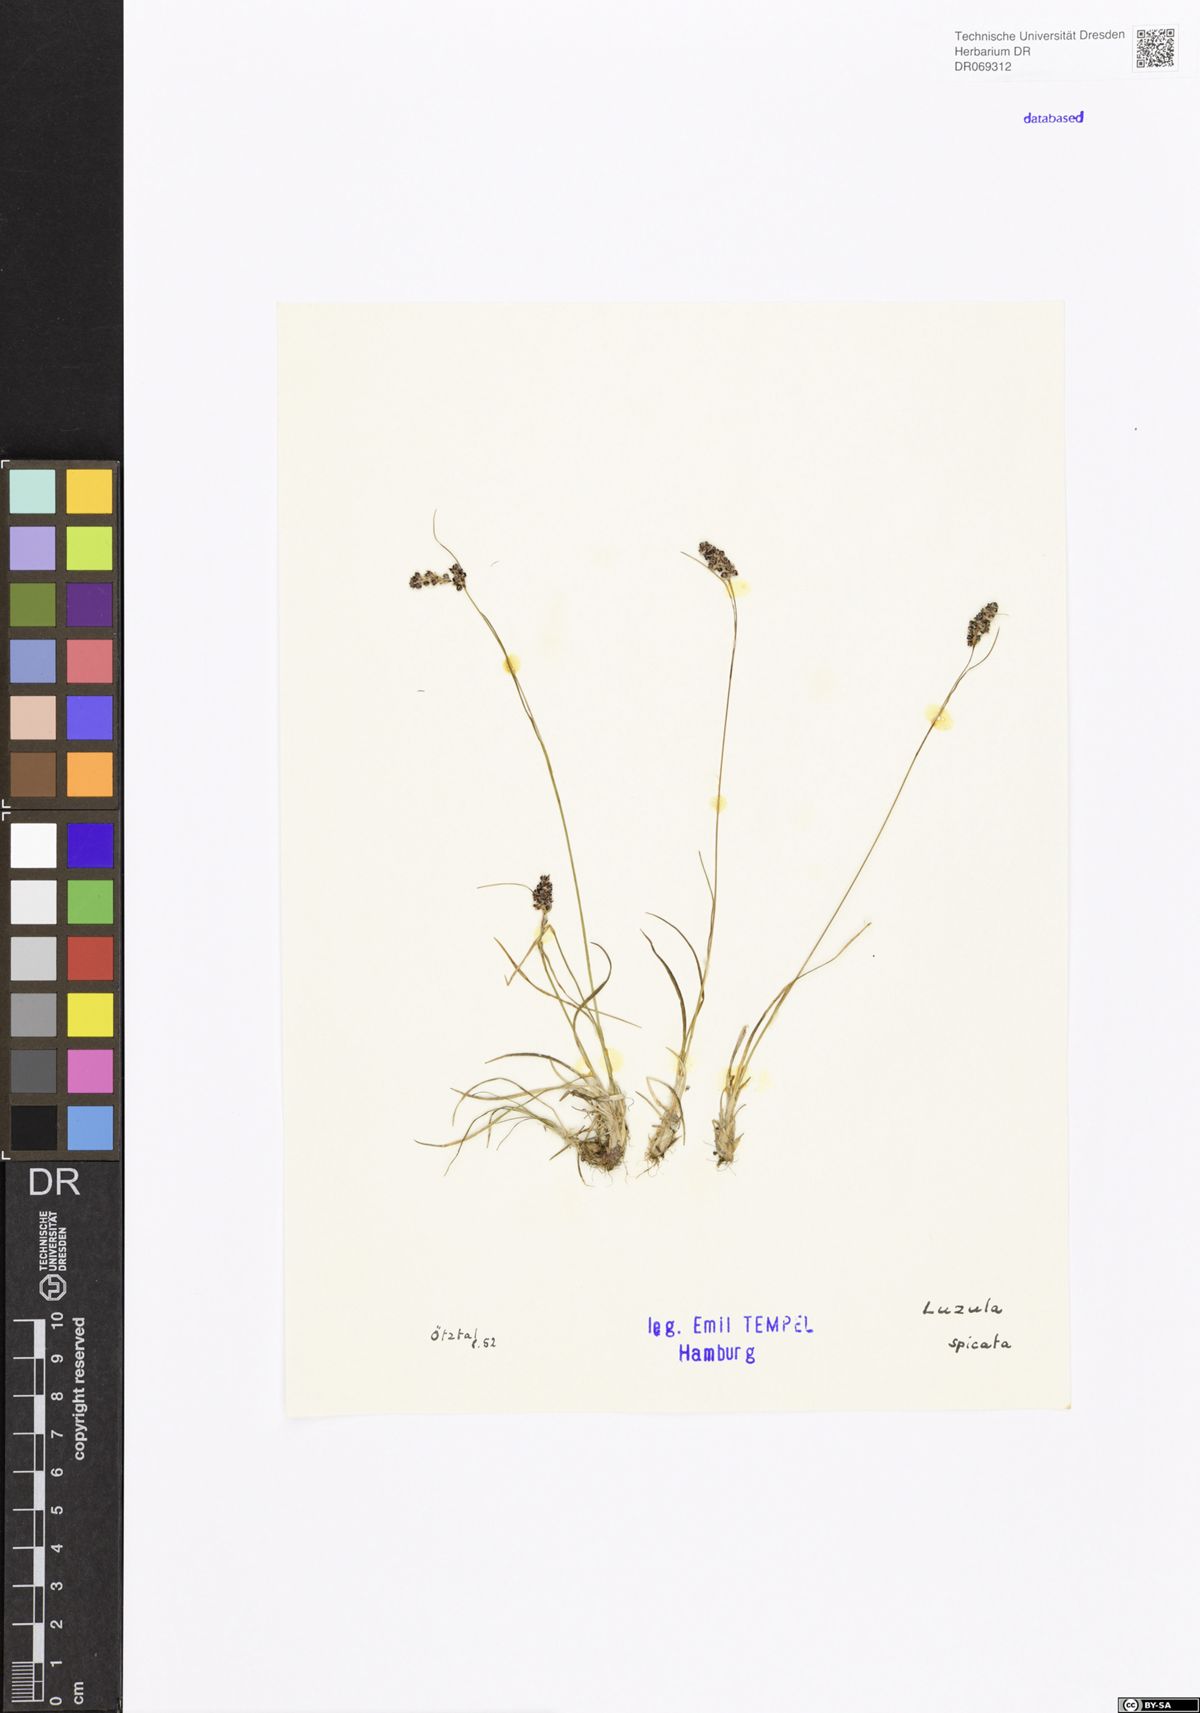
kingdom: Plantae
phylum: Tracheophyta
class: Liliopsida
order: Poales
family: Juncaceae
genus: Luzula
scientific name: Luzula spicata
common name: Spiked wood-rush
